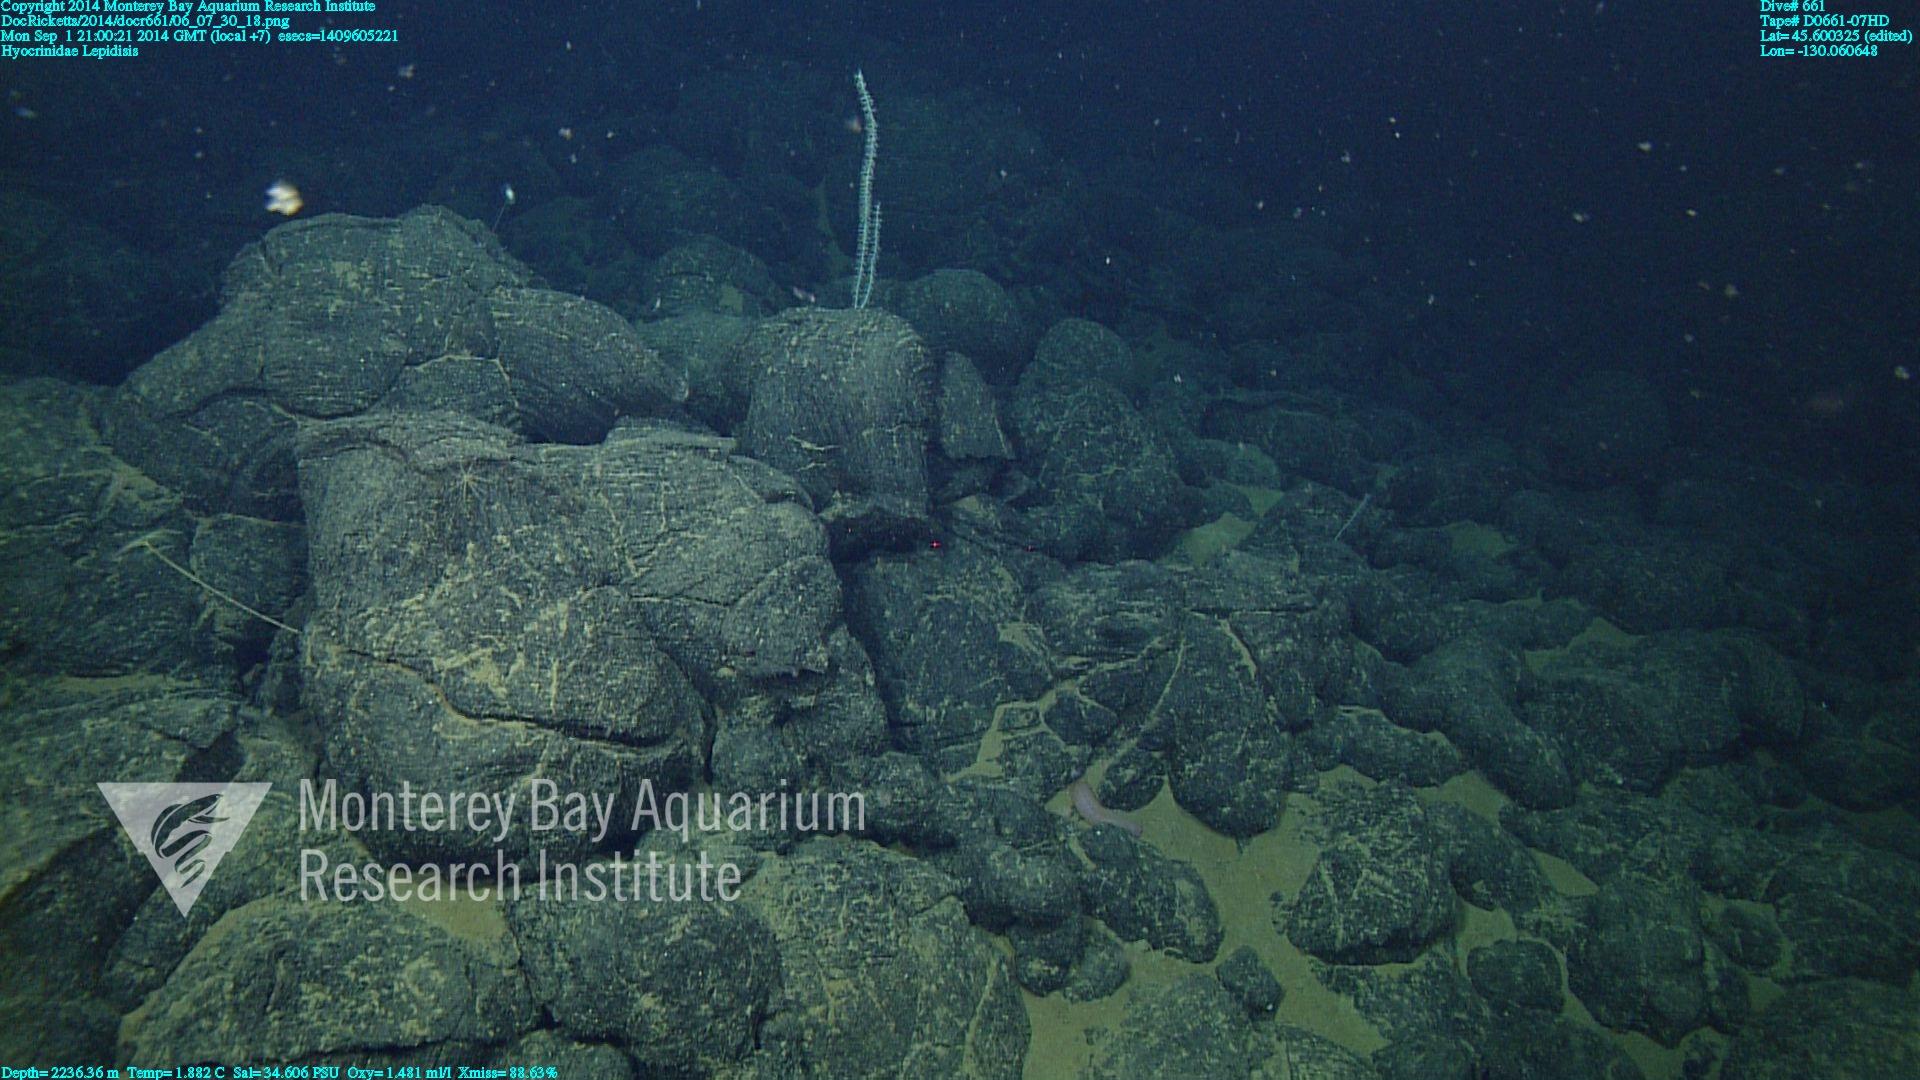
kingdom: Animalia
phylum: Cnidaria
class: Anthozoa
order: Scleralcyonacea
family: Keratoisididae
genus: Lepidisis
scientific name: Lepidisis
